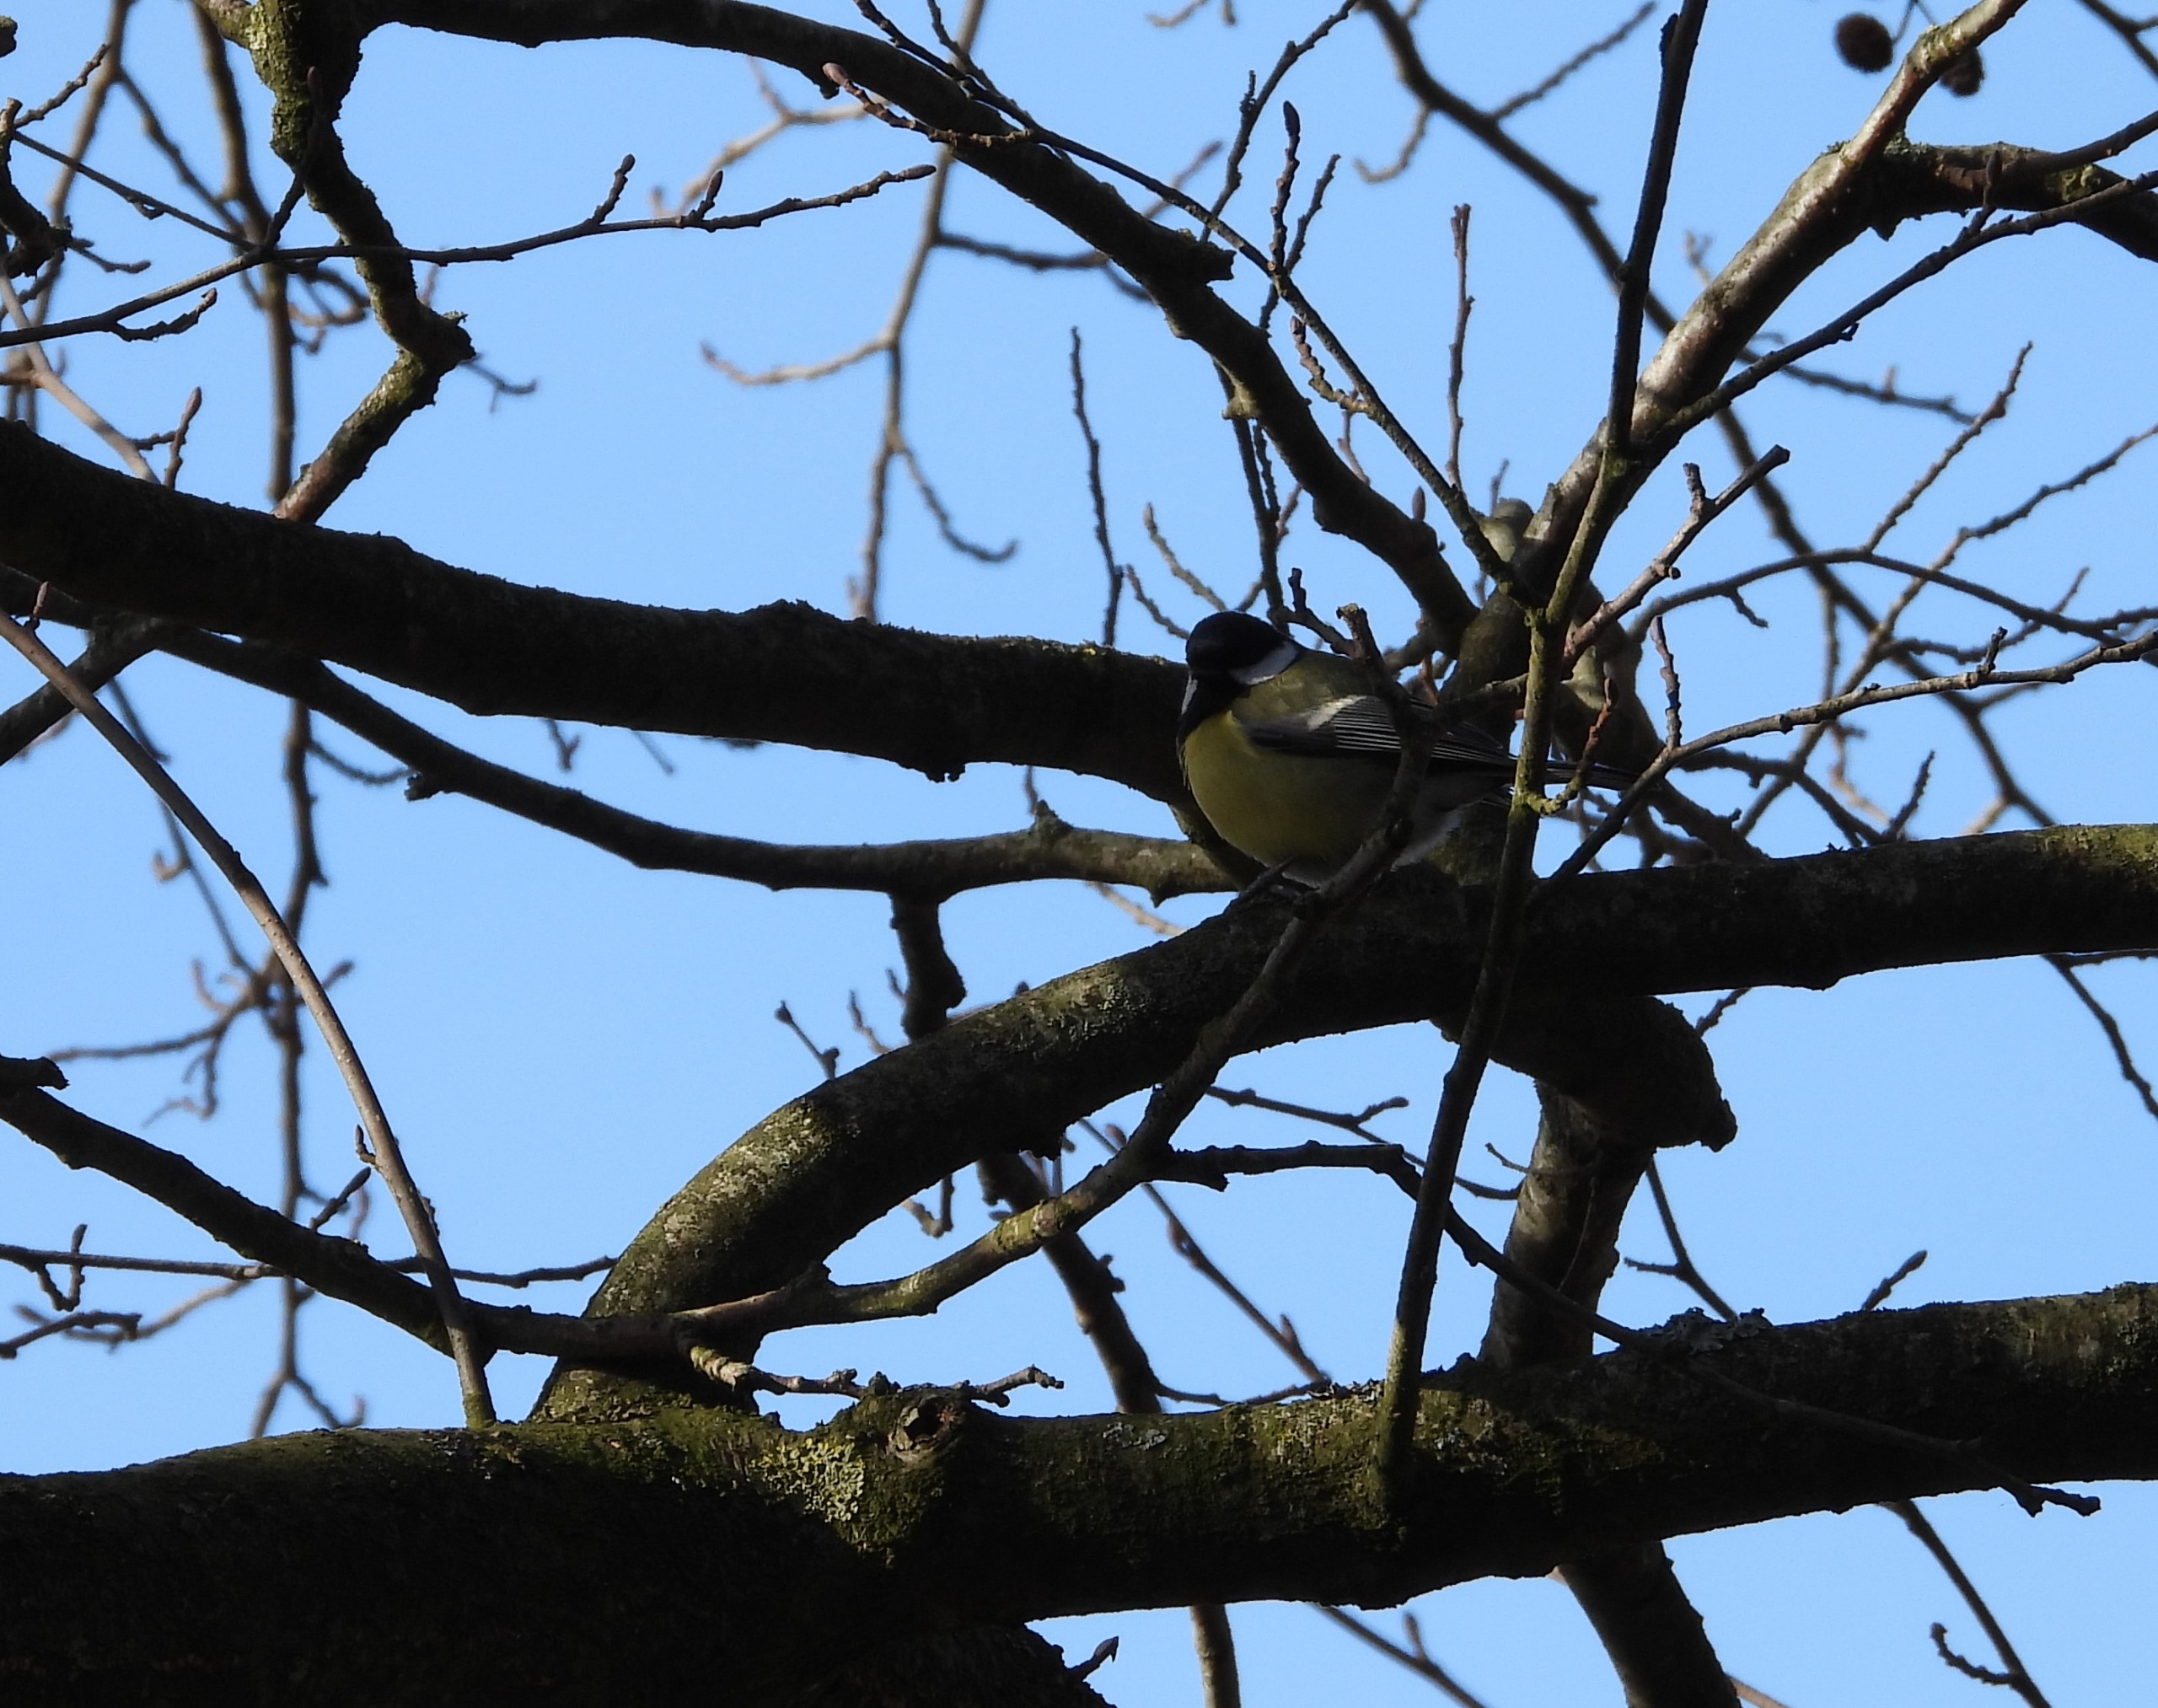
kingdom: Animalia
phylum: Chordata
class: Aves
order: Passeriformes
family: Paridae
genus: Parus
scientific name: Parus major
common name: Musvit
